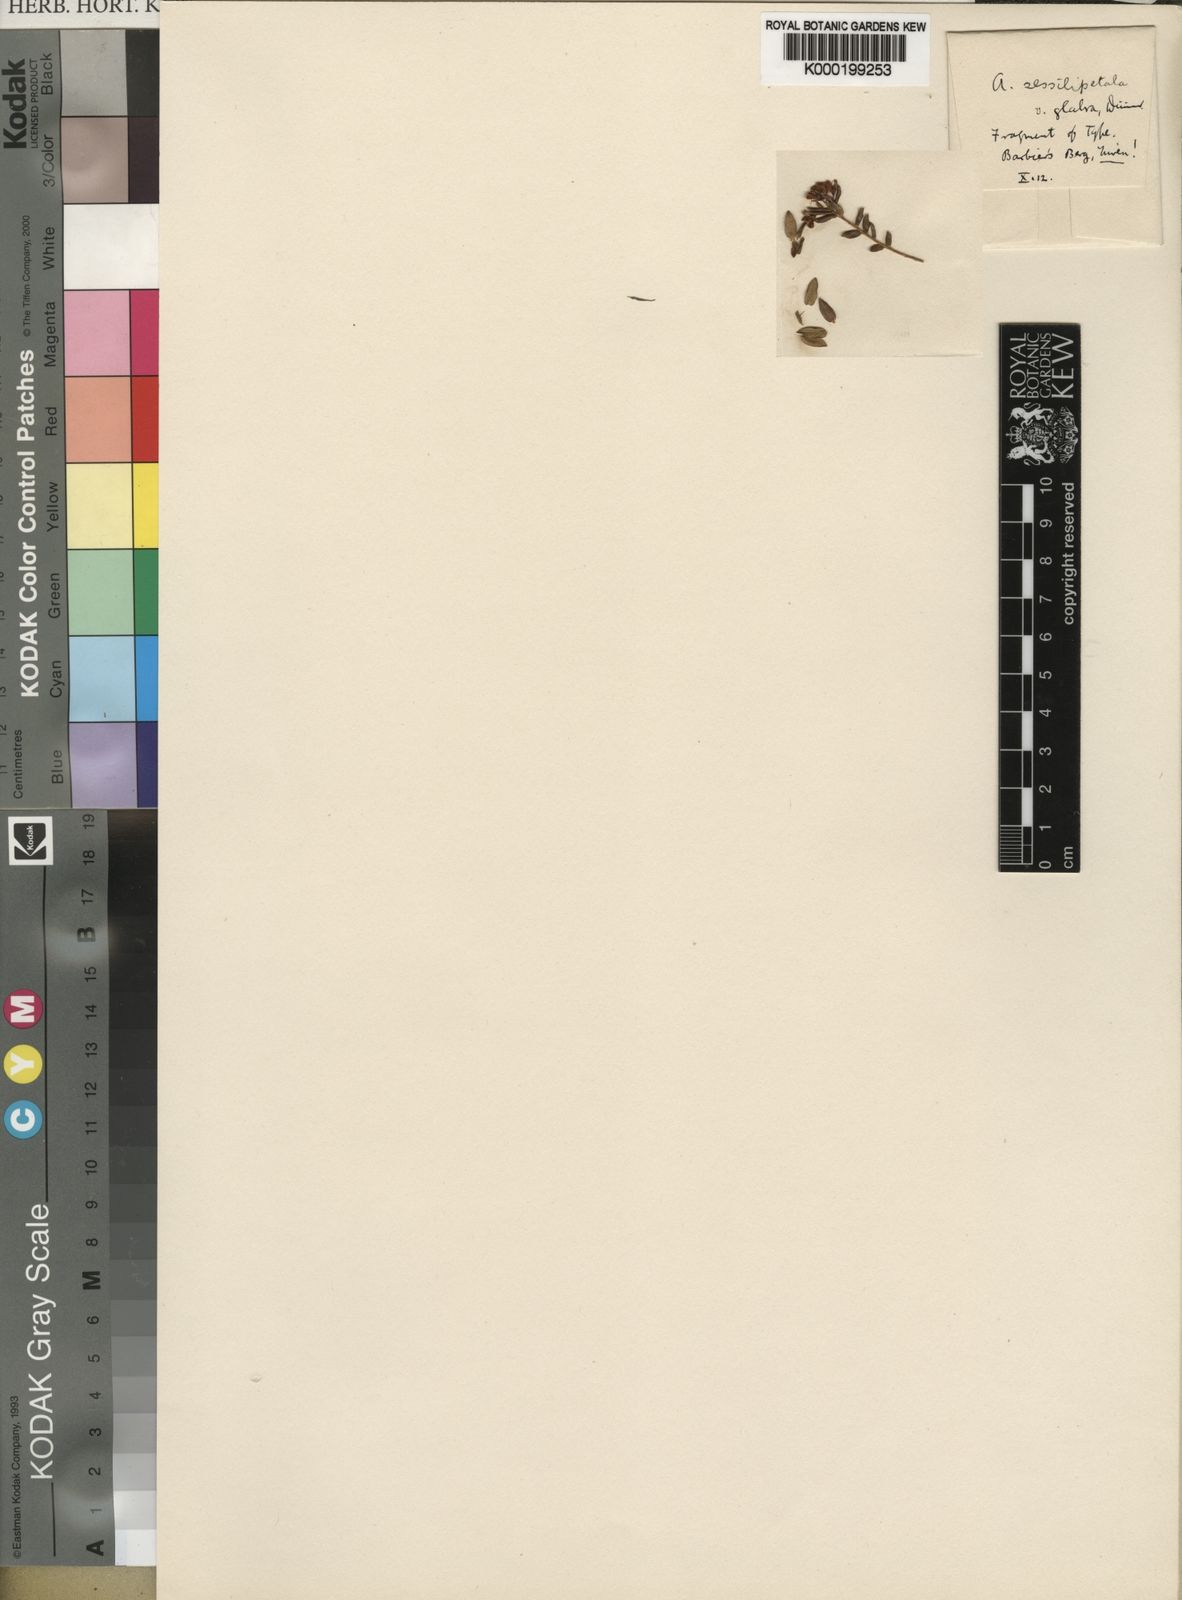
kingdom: Plantae
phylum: Tracheophyta
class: Magnoliopsida
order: Sapindales
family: Rutaceae
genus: Agathosma
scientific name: Agathosma planifolia
